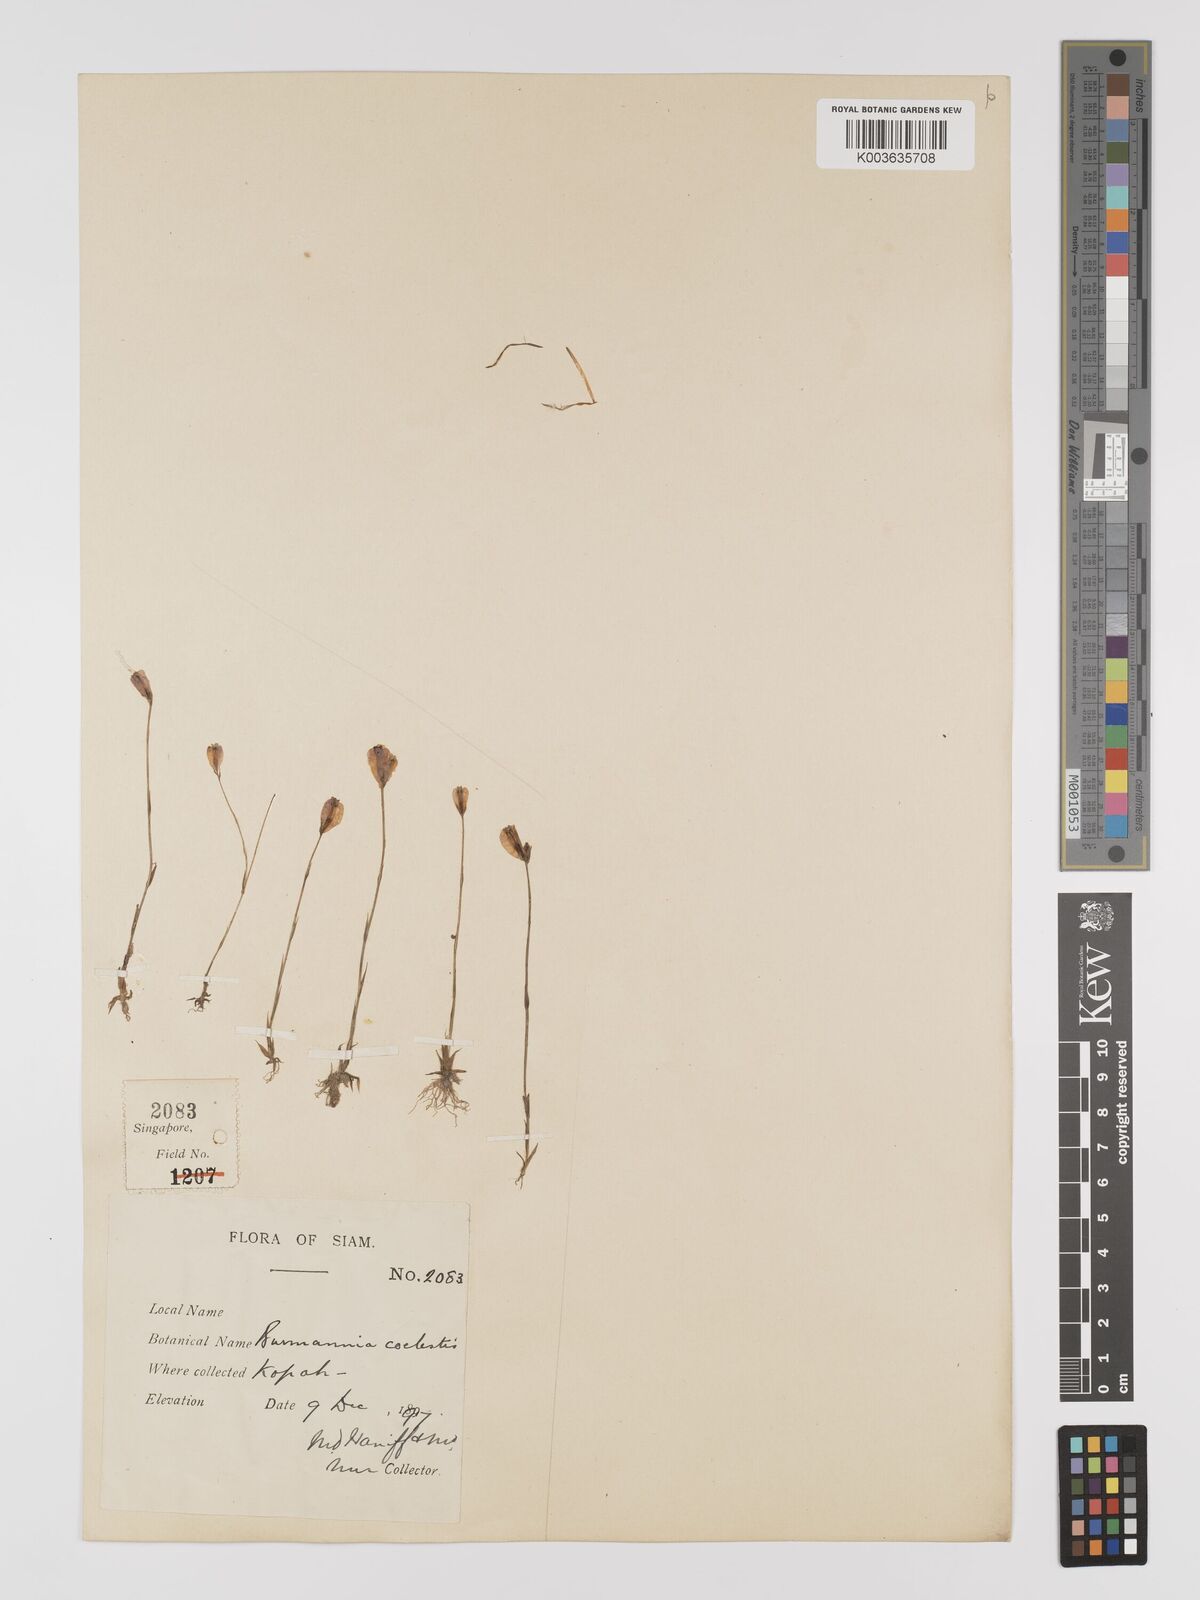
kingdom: Plantae
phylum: Tracheophyta
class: Liliopsida
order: Dioscoreales
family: Burmanniaceae
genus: Burmannia
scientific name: Burmannia coelestis
